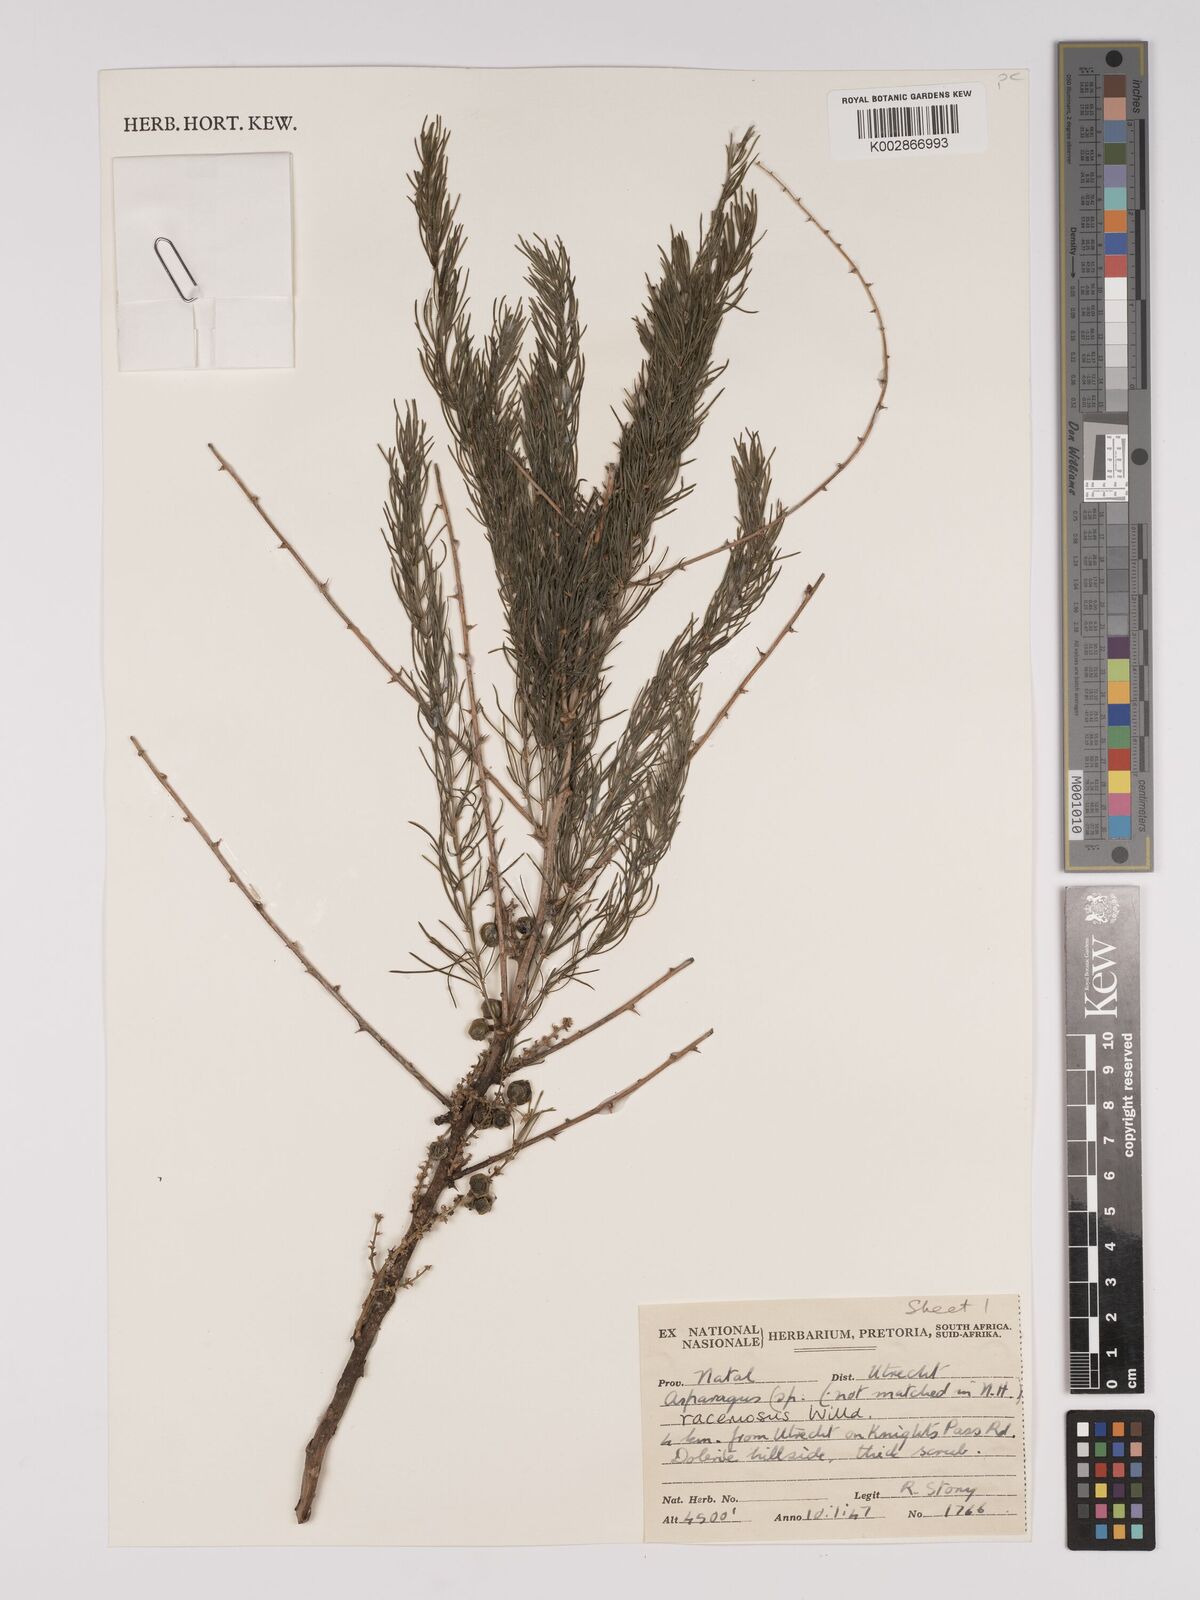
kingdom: Plantae
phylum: Tracheophyta
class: Liliopsida
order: Asparagales
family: Asparagaceae
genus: Asparagus
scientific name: Asparagus racemosus
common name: Asparagus-fern
